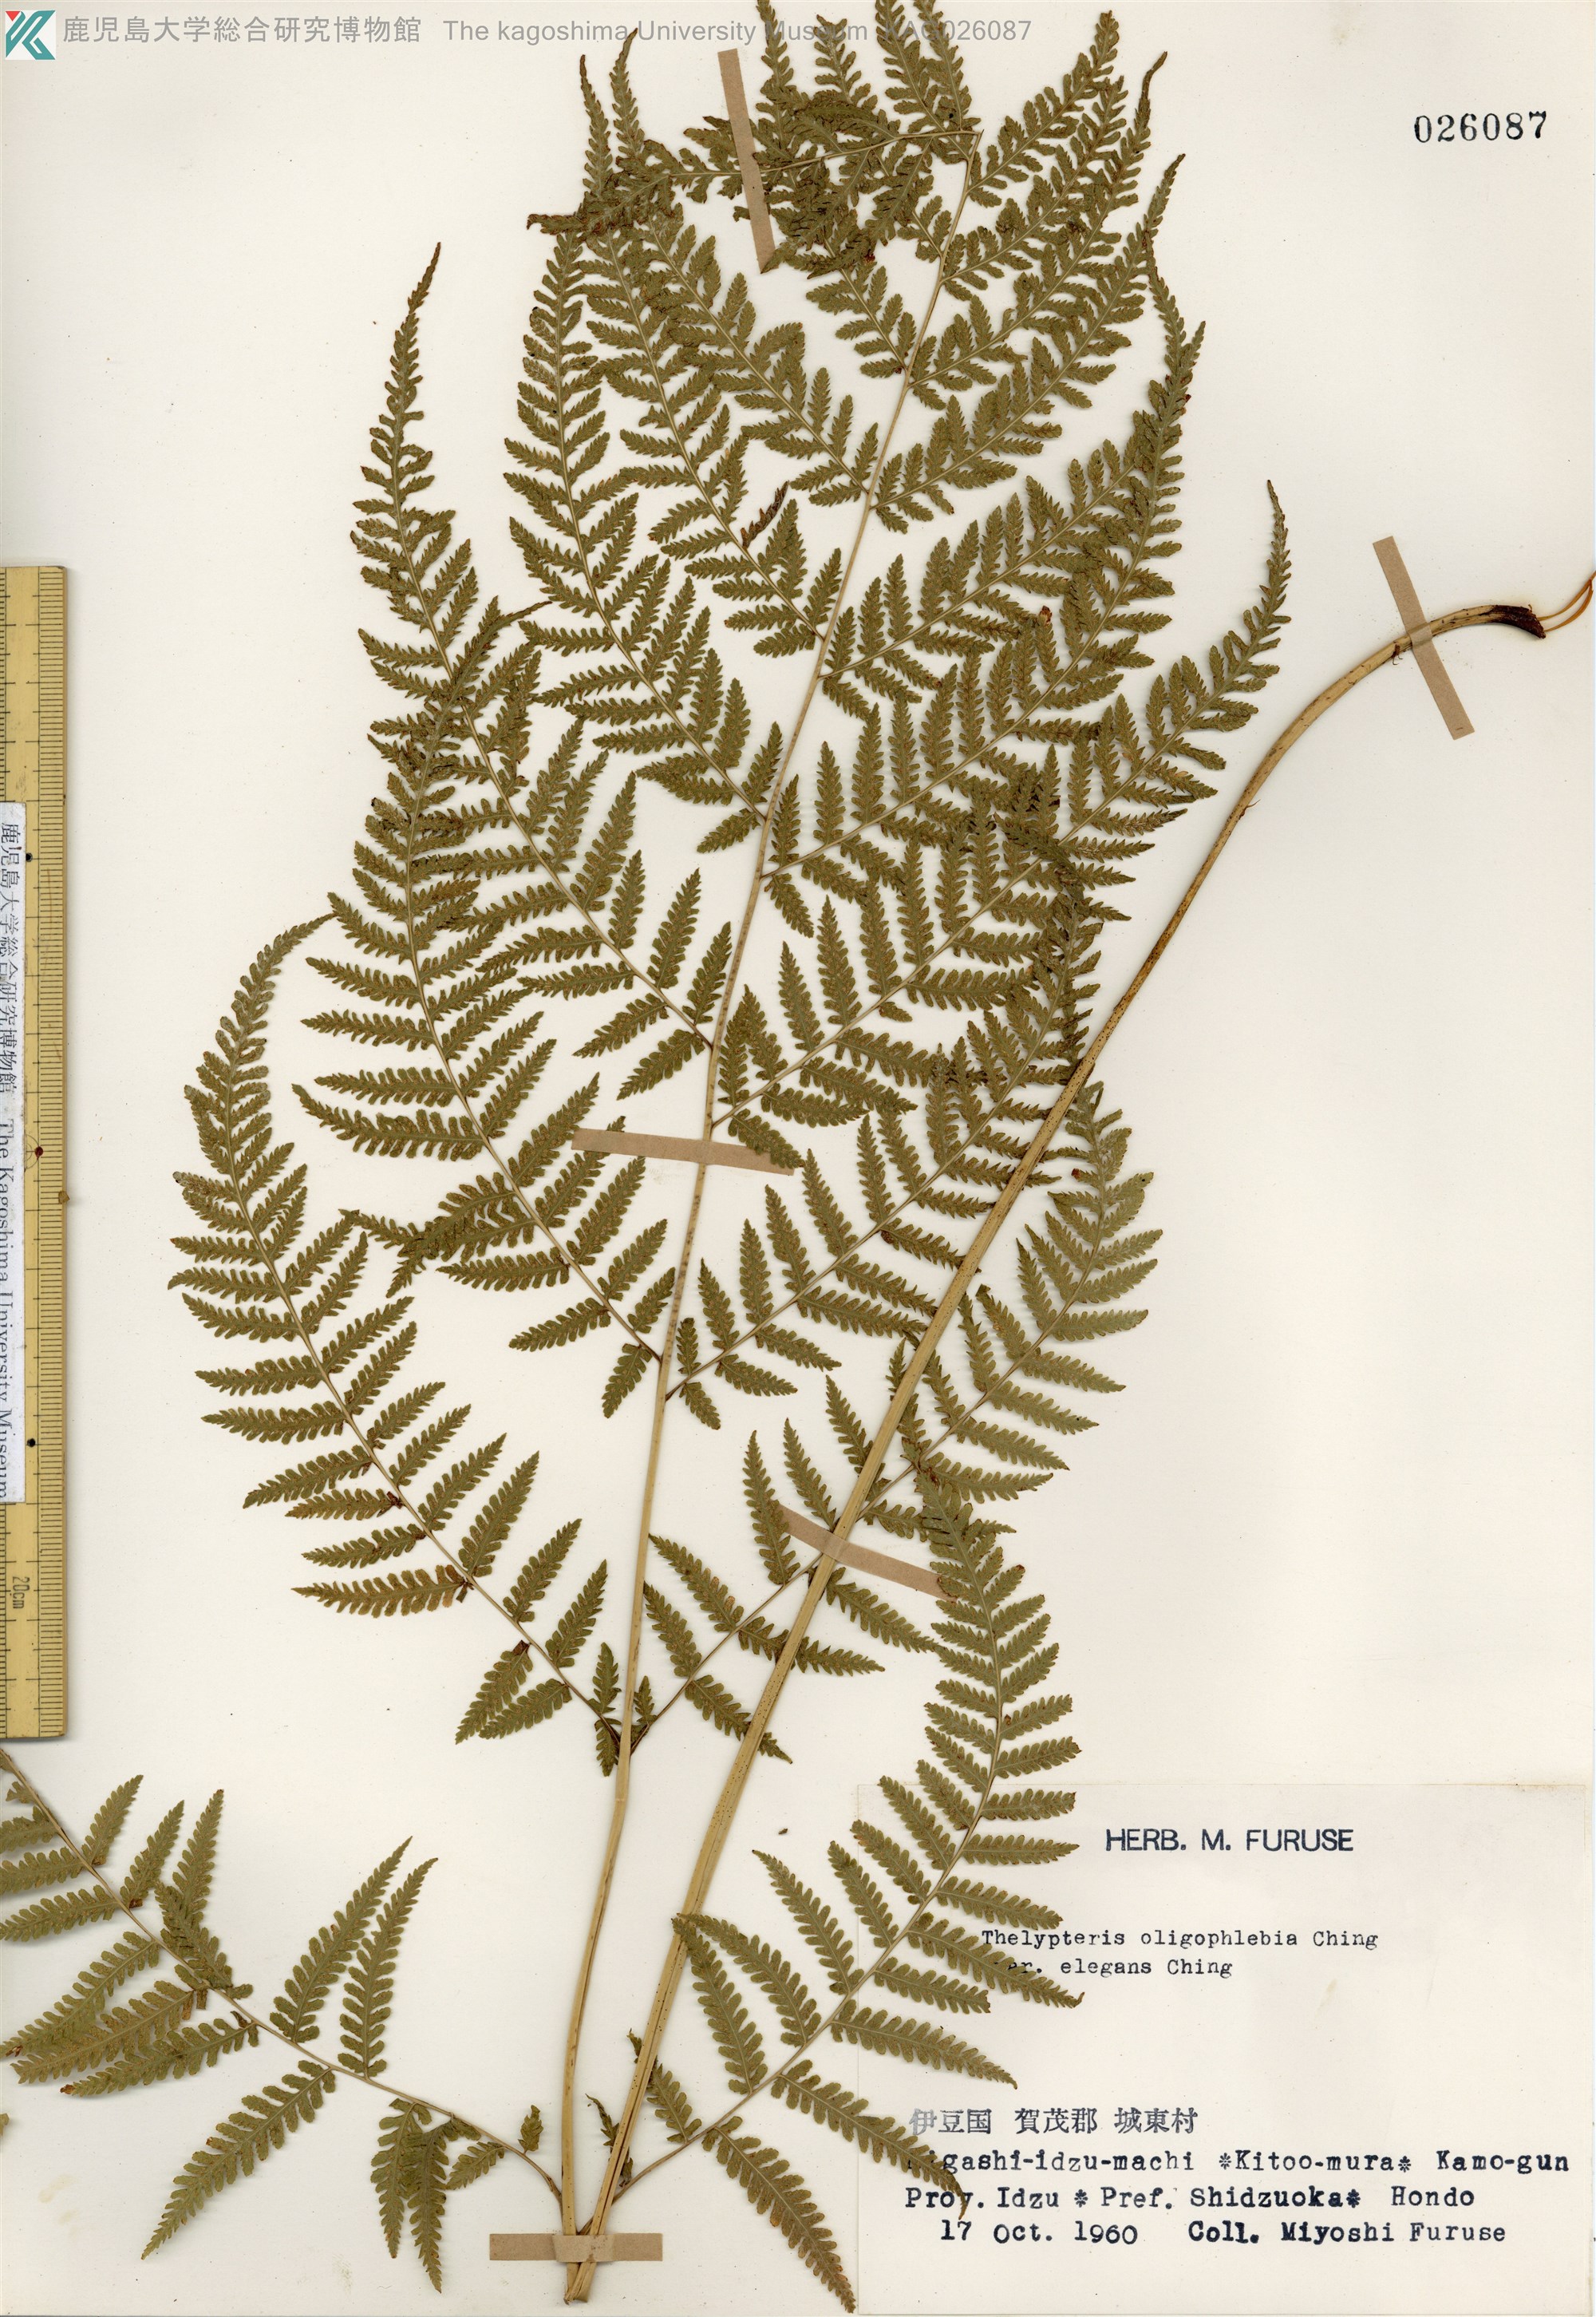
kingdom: Plantae
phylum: Tracheophyta
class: Polypodiopsida
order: Polypodiales
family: Thelypteridaceae
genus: Macrothelypteris
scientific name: Macrothelypteris oligophlebia
